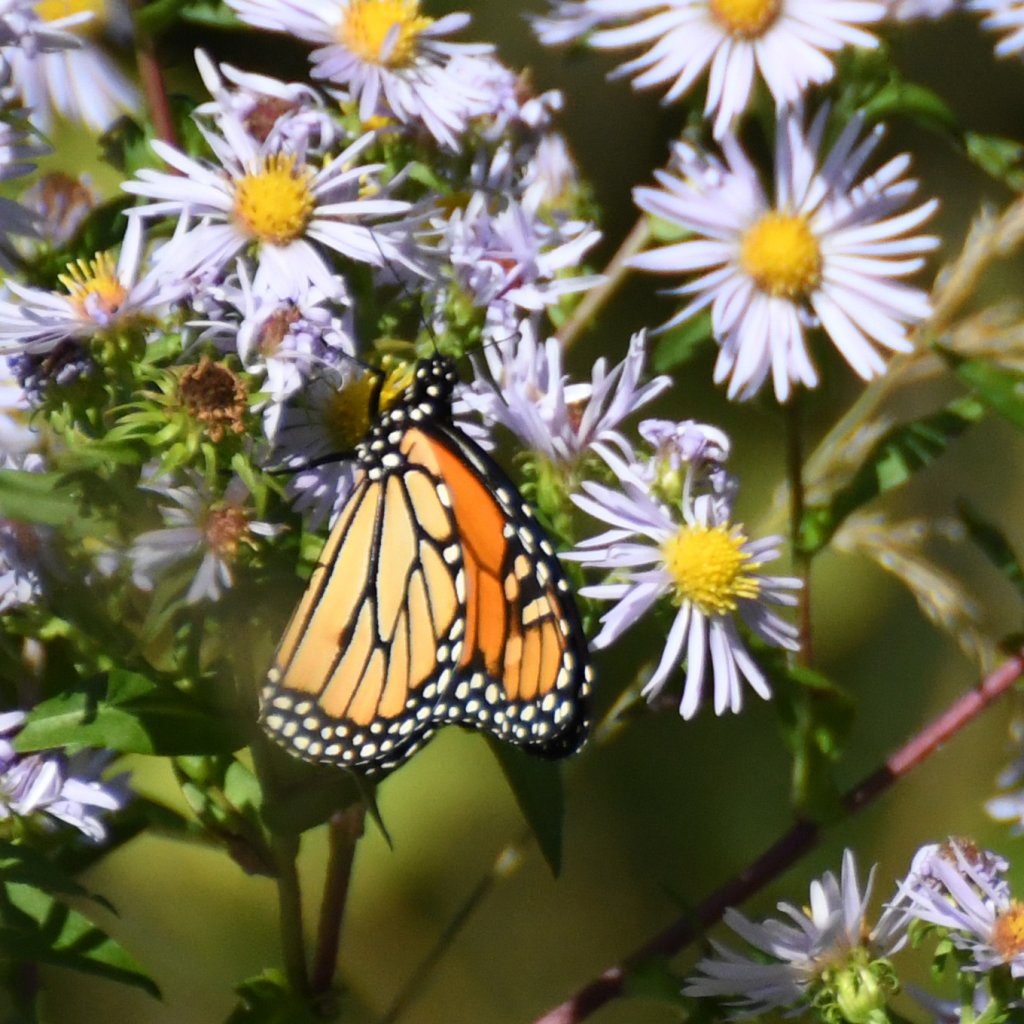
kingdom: Animalia
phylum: Arthropoda
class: Insecta
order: Lepidoptera
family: Nymphalidae
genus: Danaus
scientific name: Danaus plexippus
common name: Monarch
